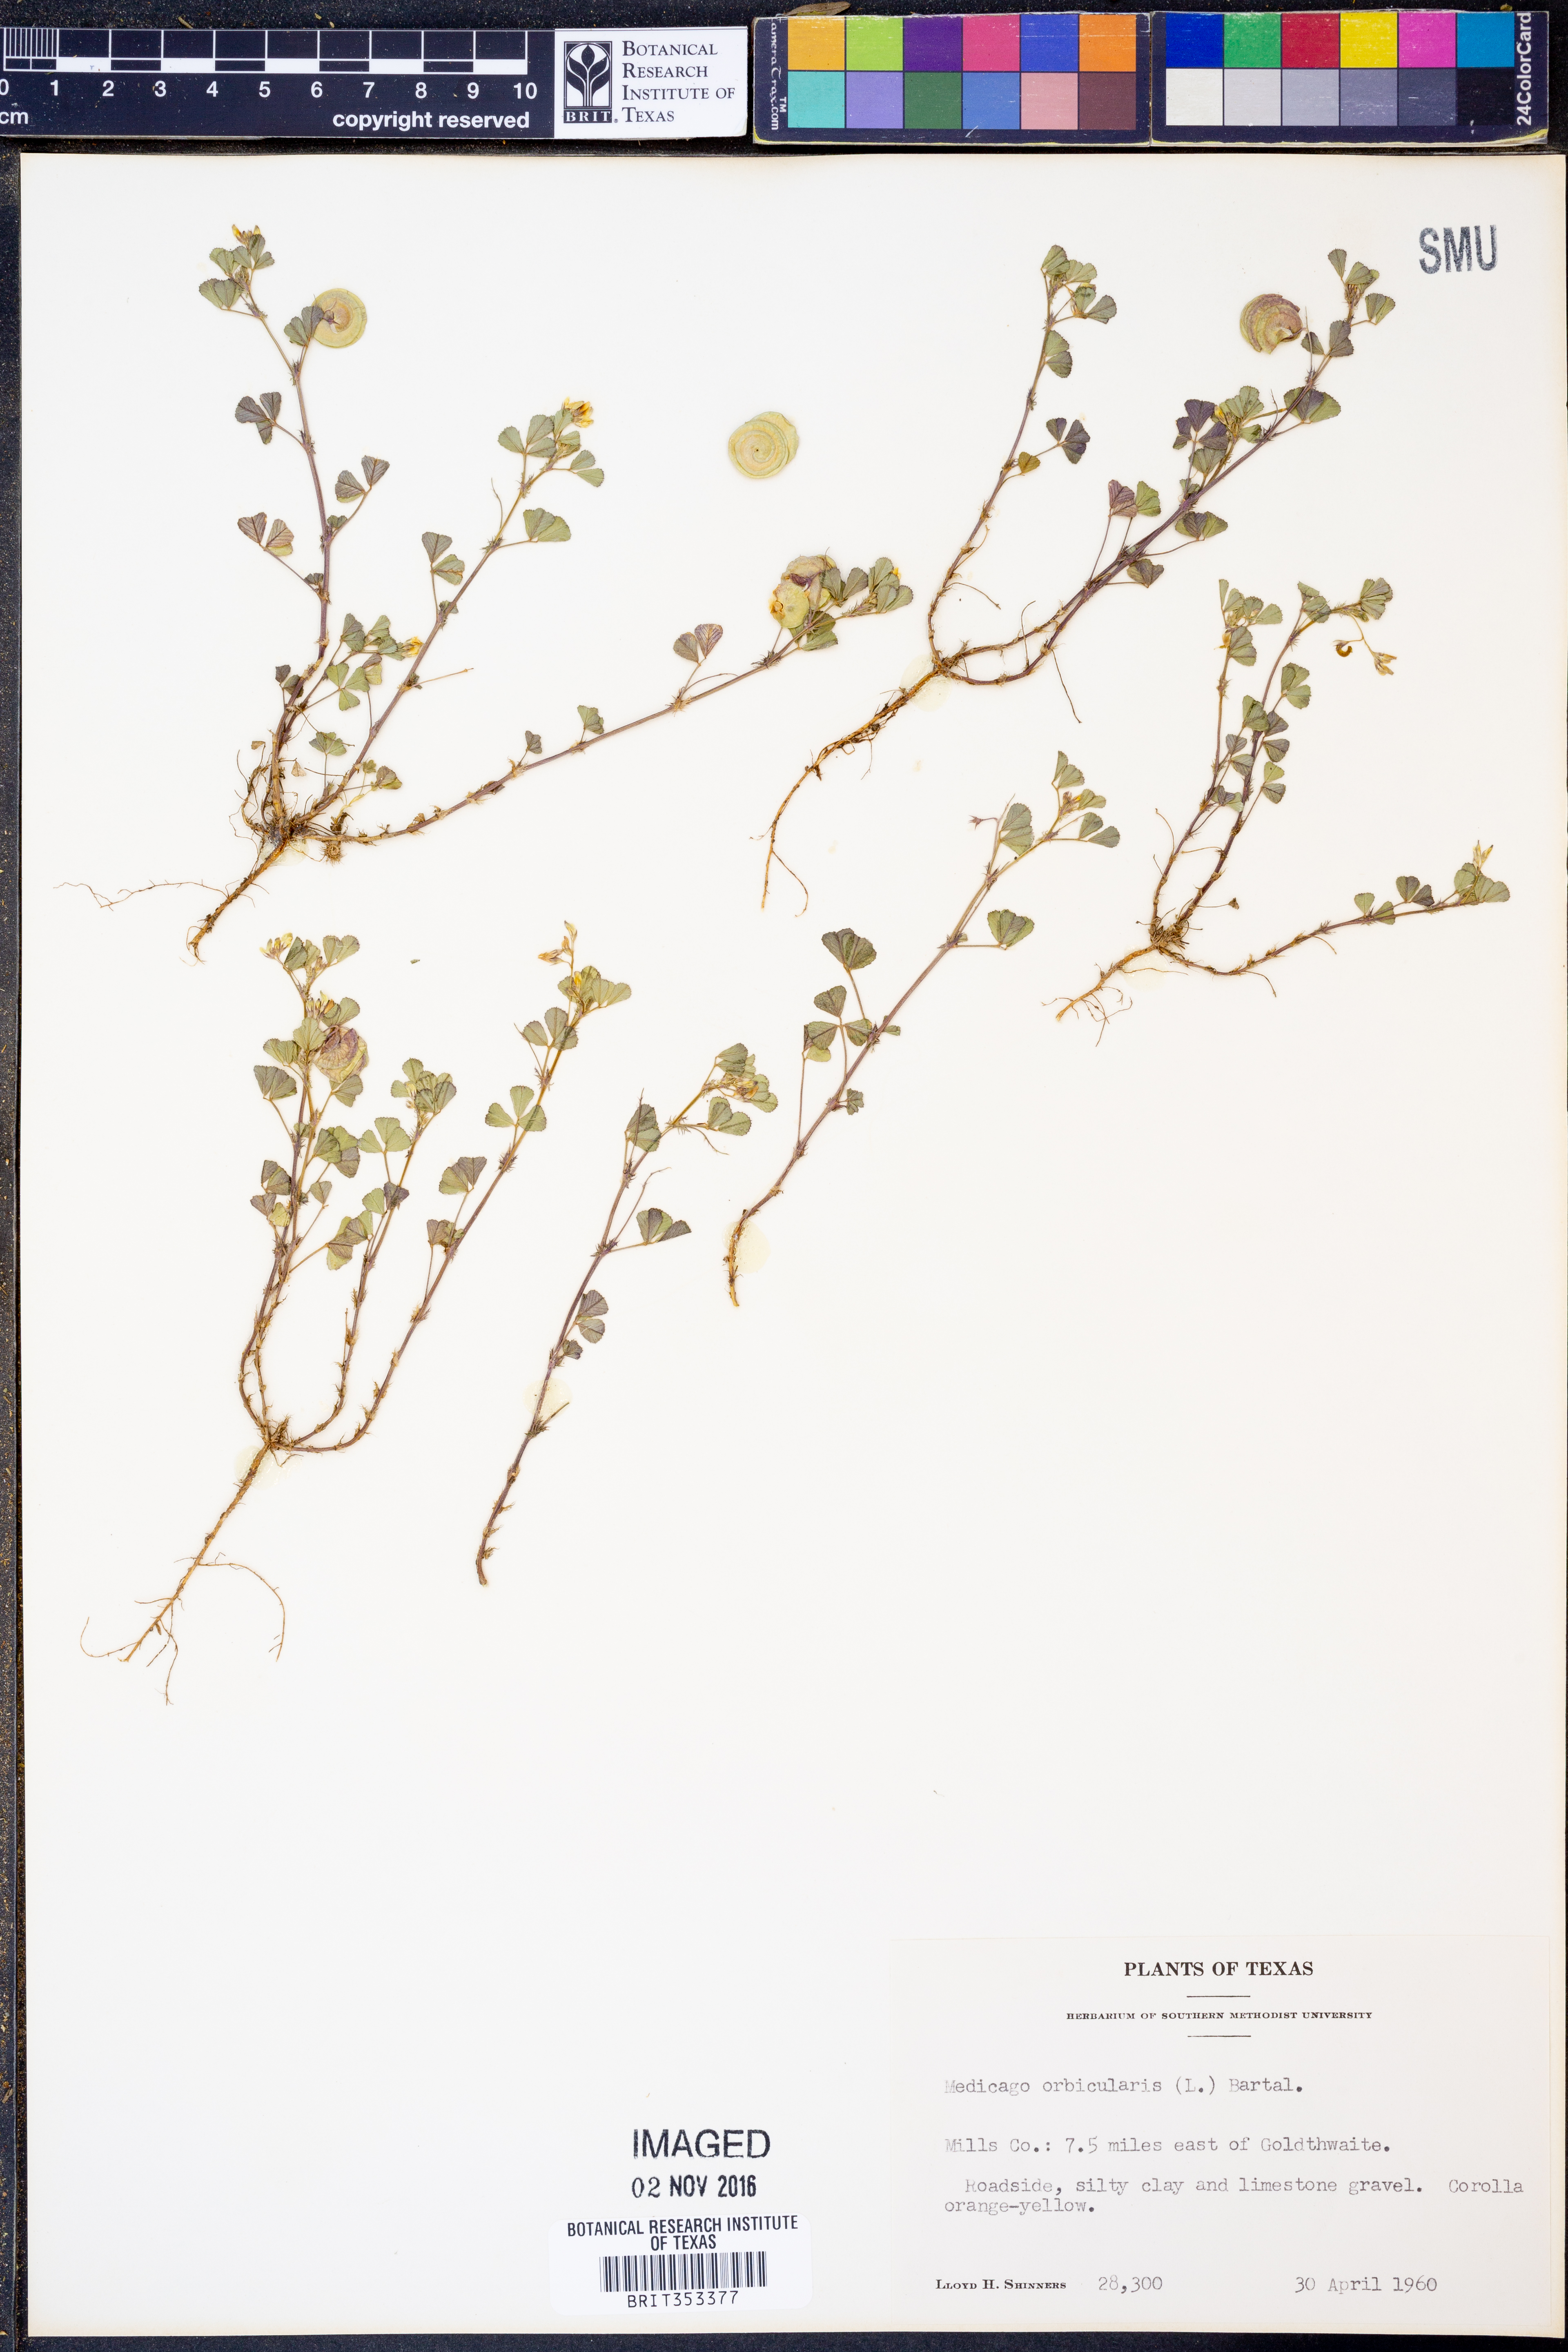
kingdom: Plantae
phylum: Tracheophyta
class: Magnoliopsida
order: Fabales
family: Fabaceae
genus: Medicago
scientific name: Medicago orbicularis
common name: Button medick
